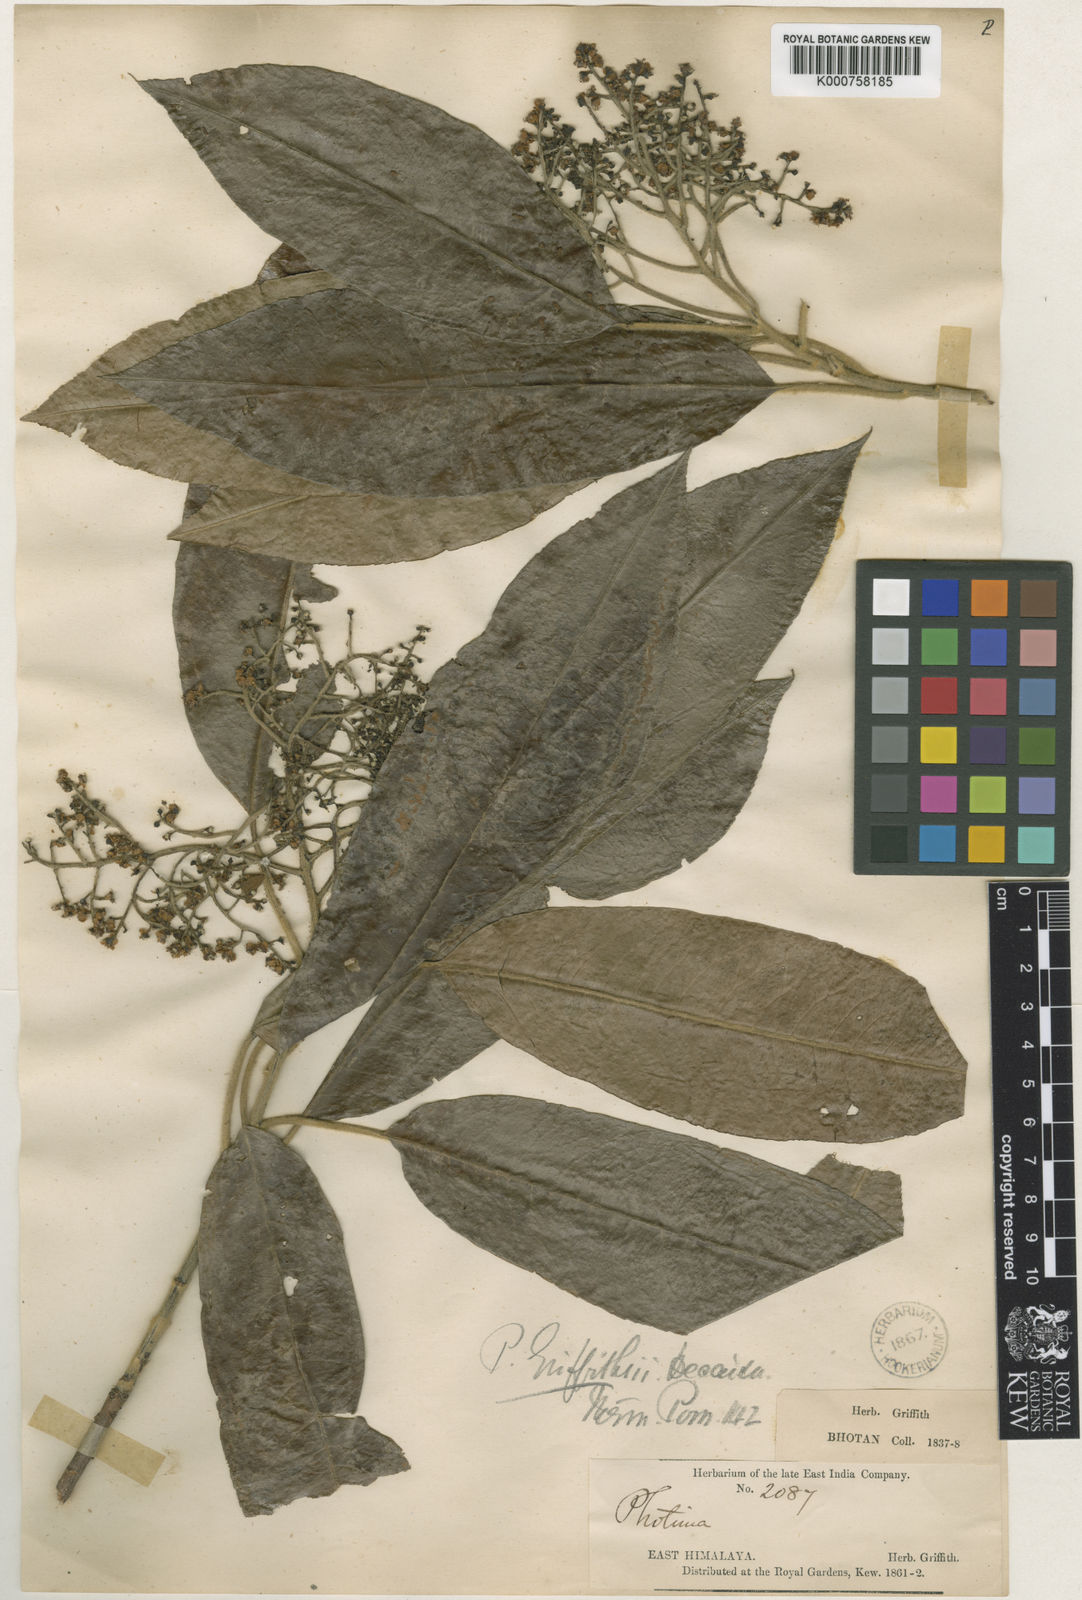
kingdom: Plantae
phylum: Tracheophyta
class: Magnoliopsida
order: Rosales
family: Rosaceae
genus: Micromeles
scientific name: Micromeles griffithii
